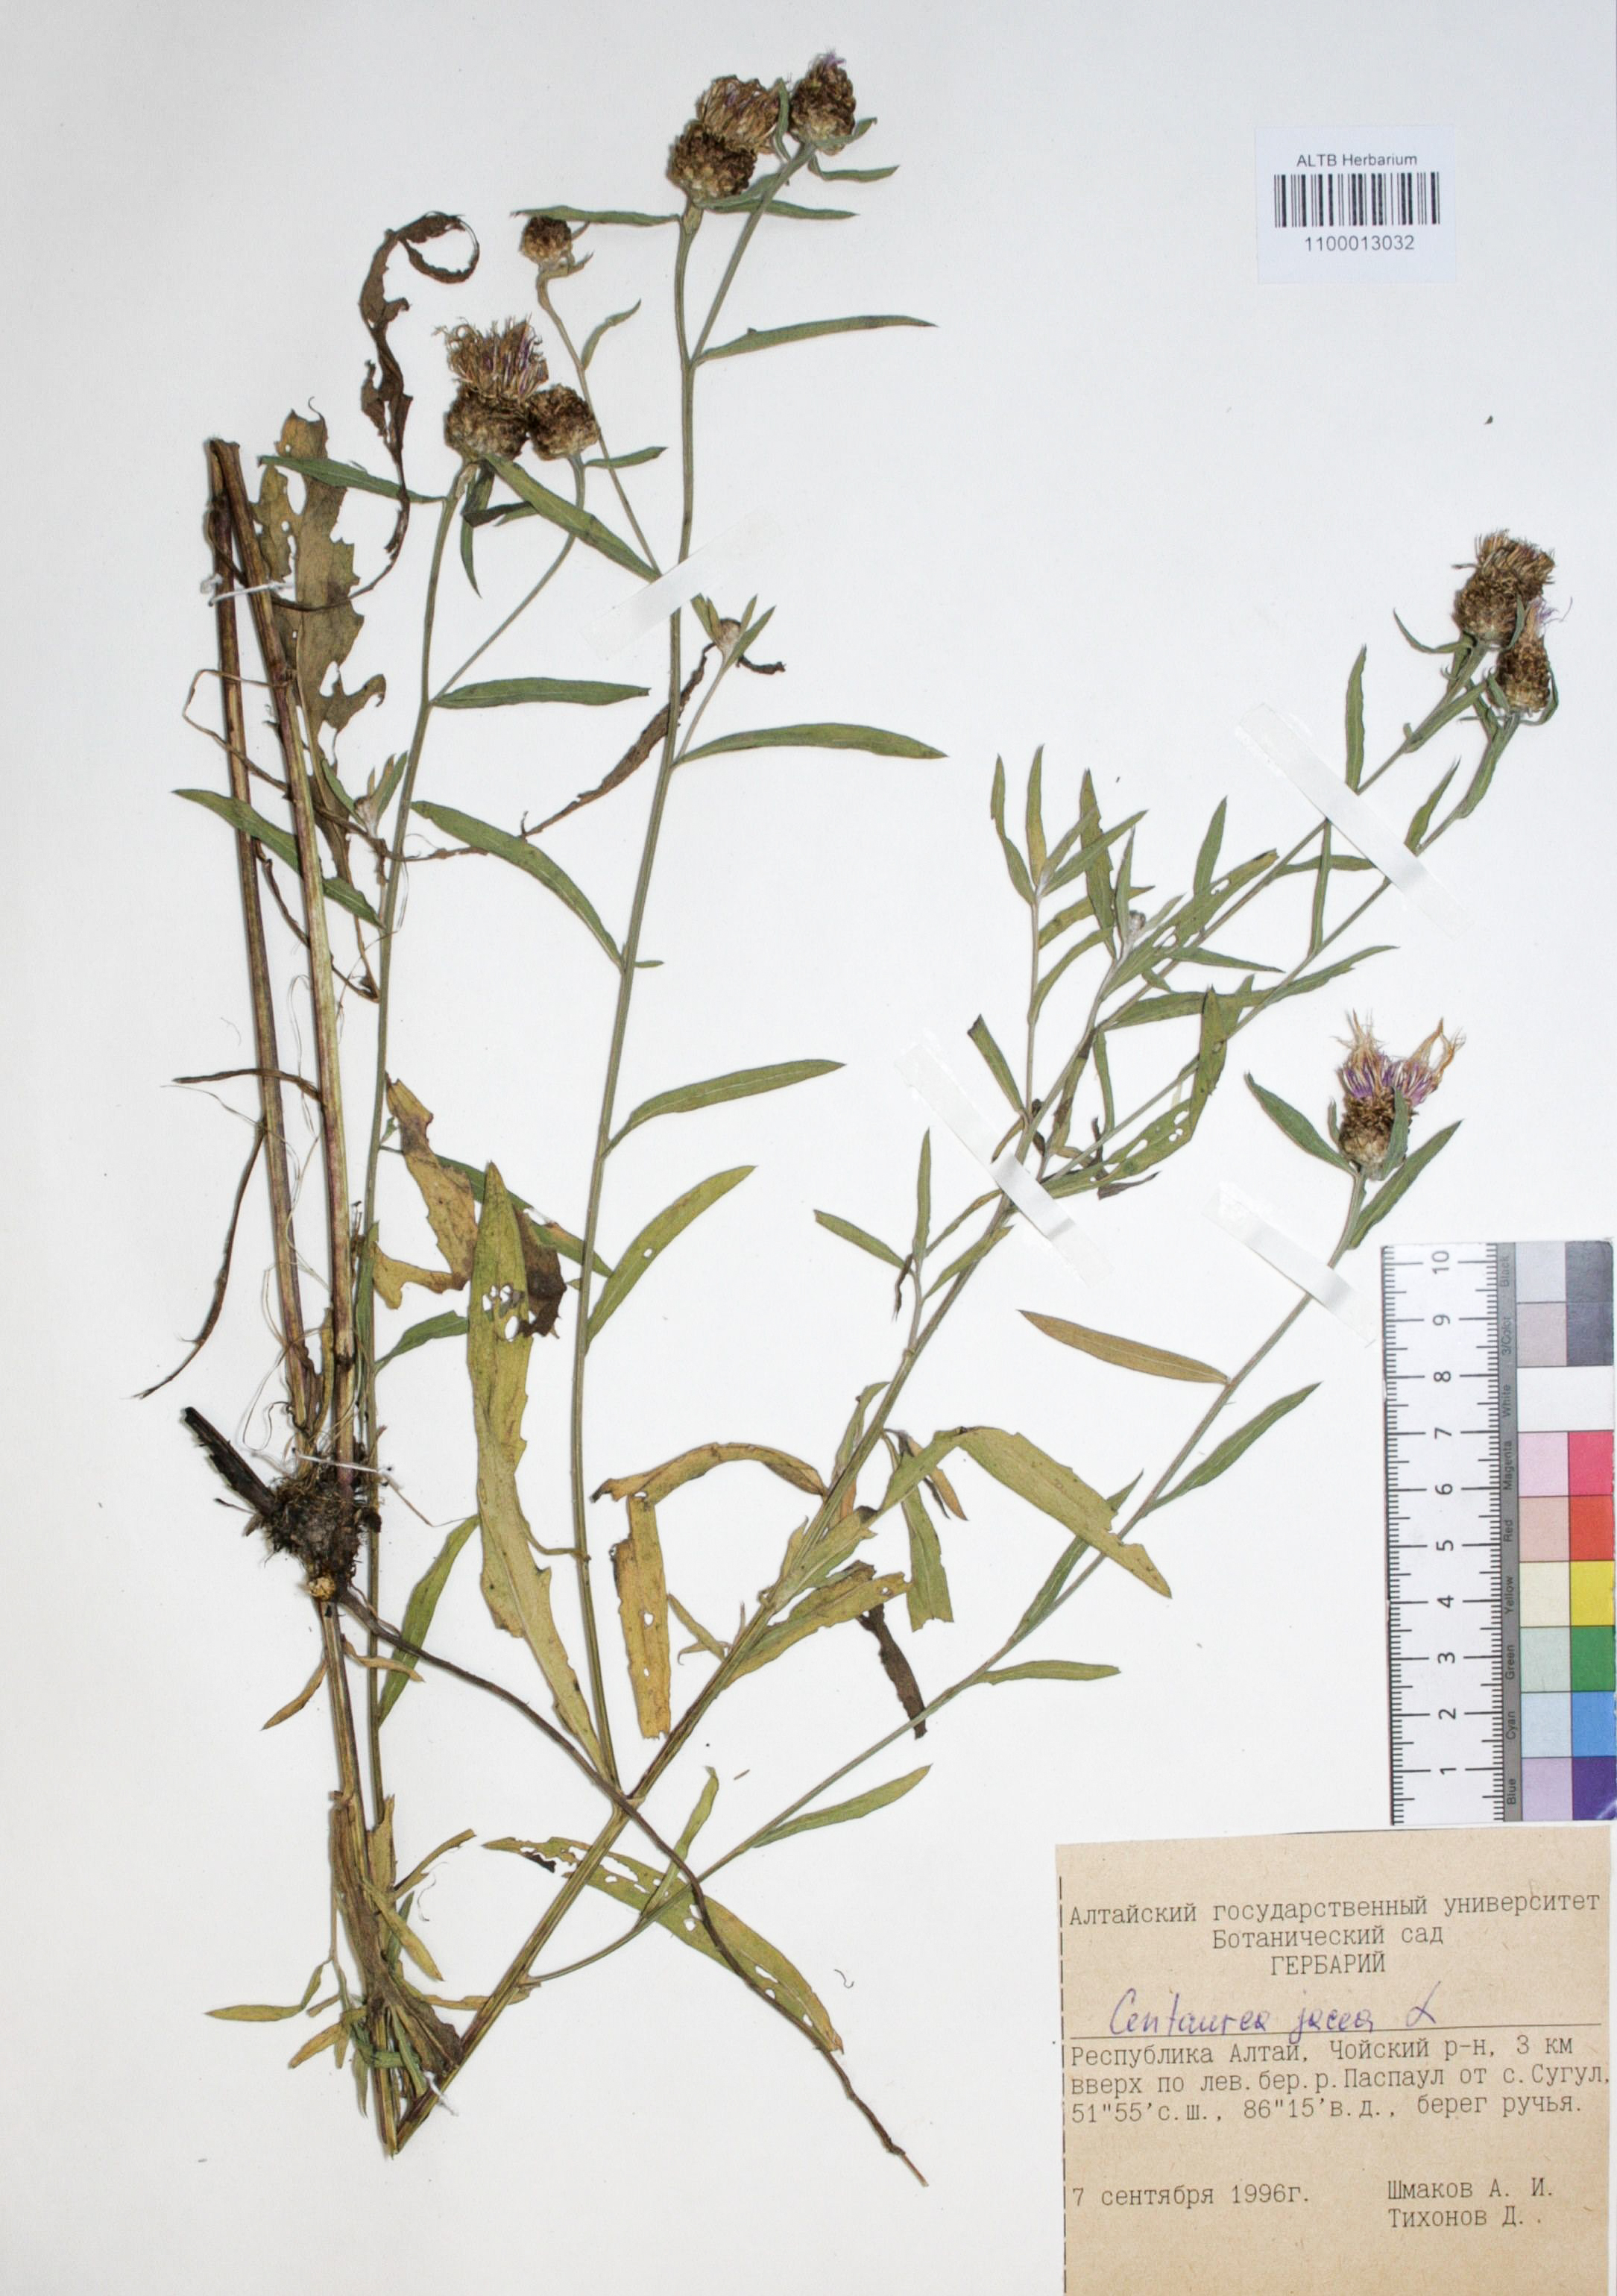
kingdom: Plantae
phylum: Tracheophyta
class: Magnoliopsida
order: Asterales
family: Asteraceae
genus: Centaurea
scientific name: Centaurea jacea
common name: Brown knapweed
